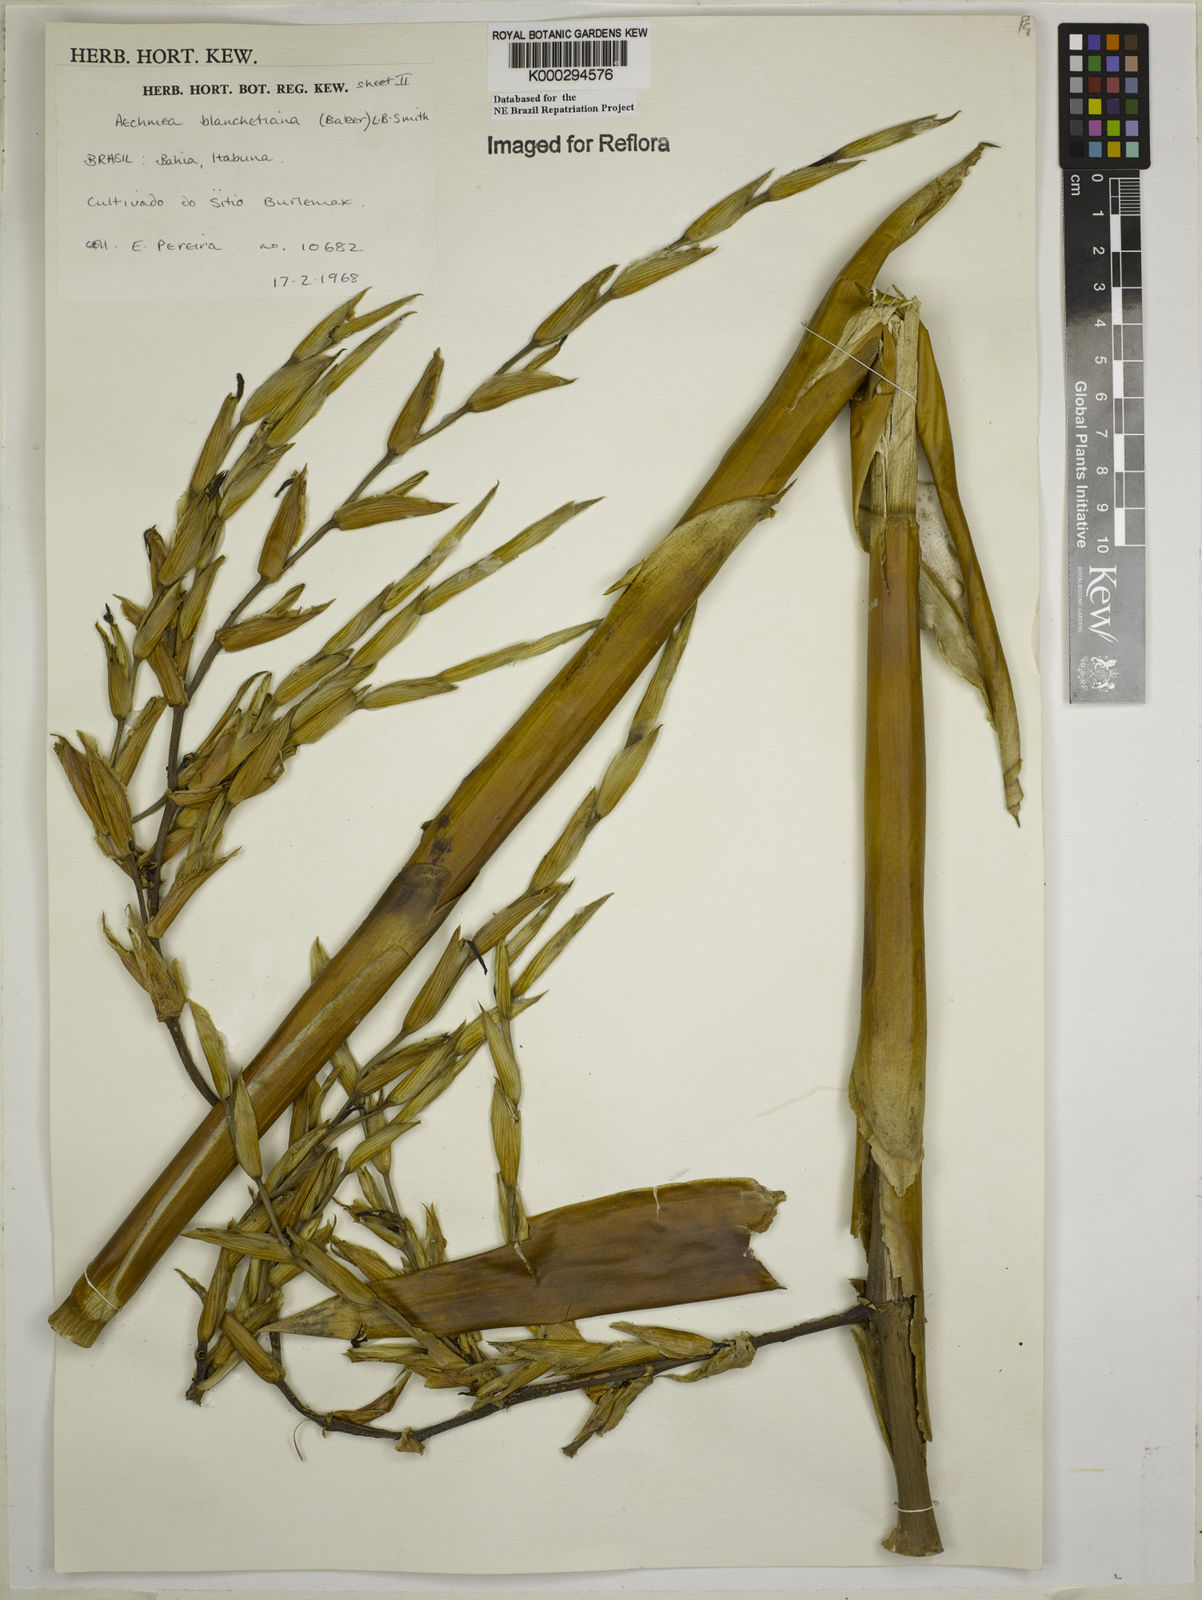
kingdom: Plantae
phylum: Tracheophyta
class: Liliopsida
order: Poales
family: Bromeliaceae
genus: Aechmea
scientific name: Aechmea blanchetiana
